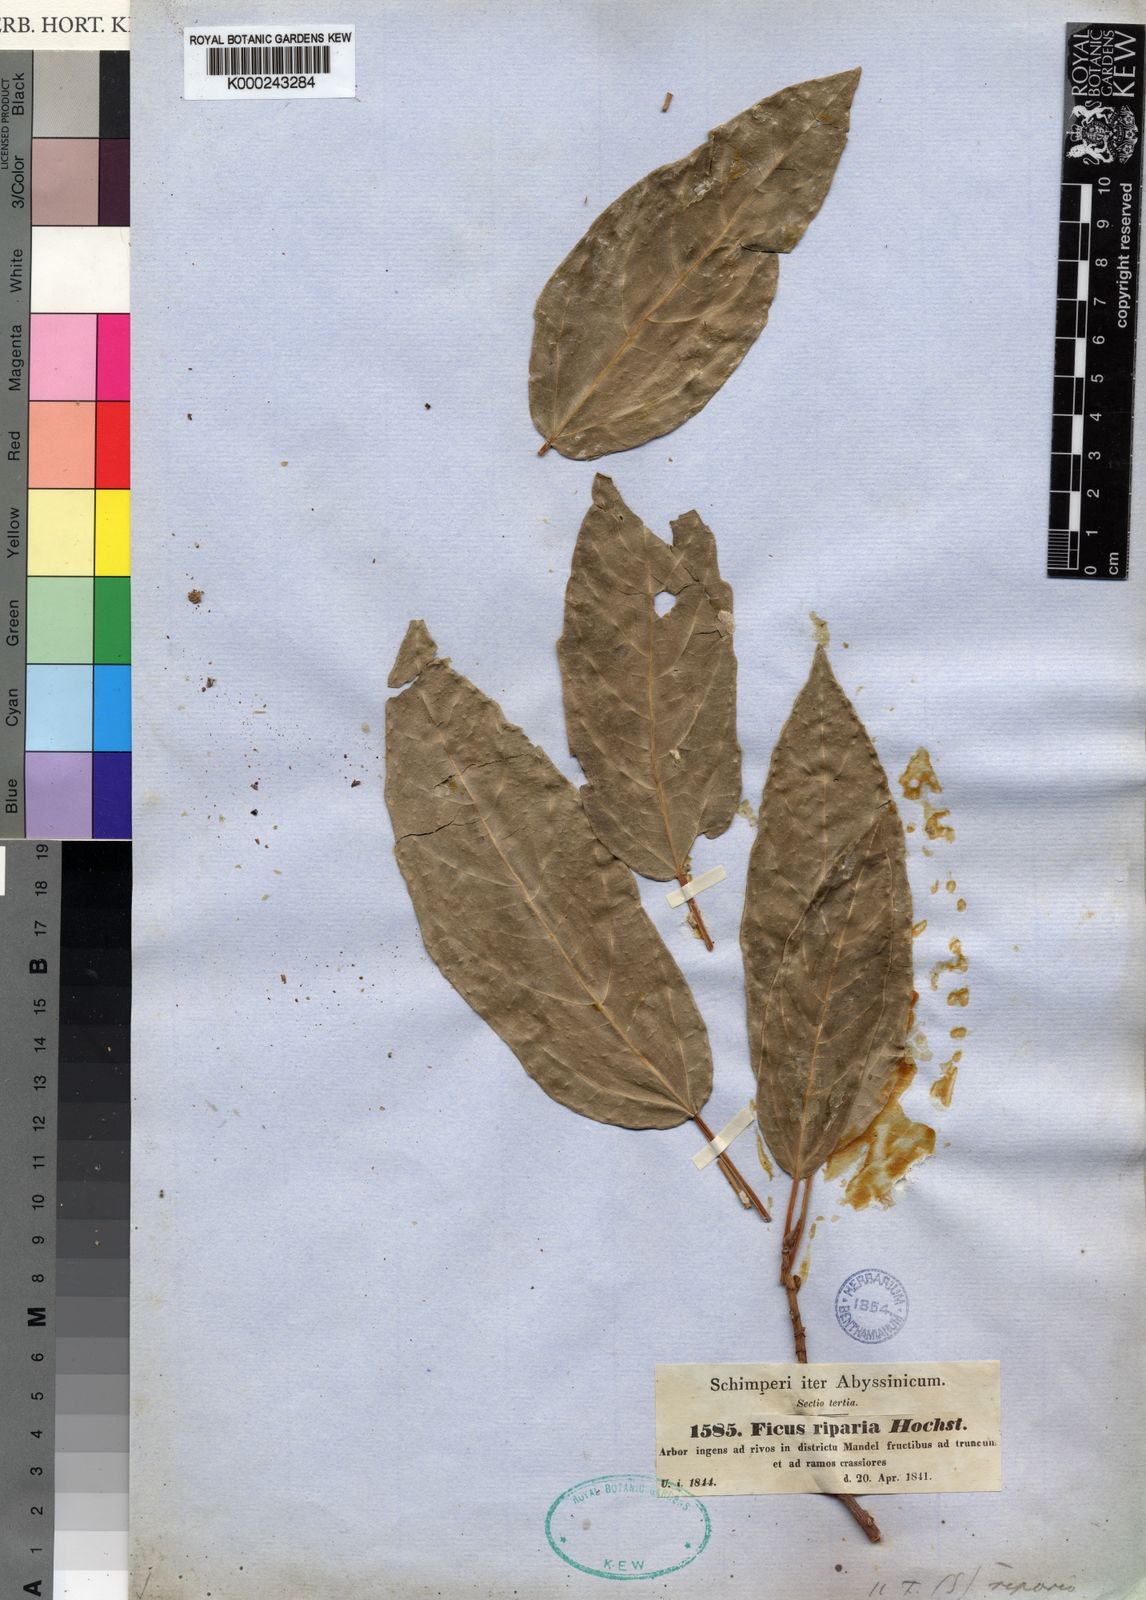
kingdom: Plantae
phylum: Tracheophyta
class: Magnoliopsida
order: Rosales
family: Moraceae
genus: Ficus
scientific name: Ficus sur
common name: Cape fig
